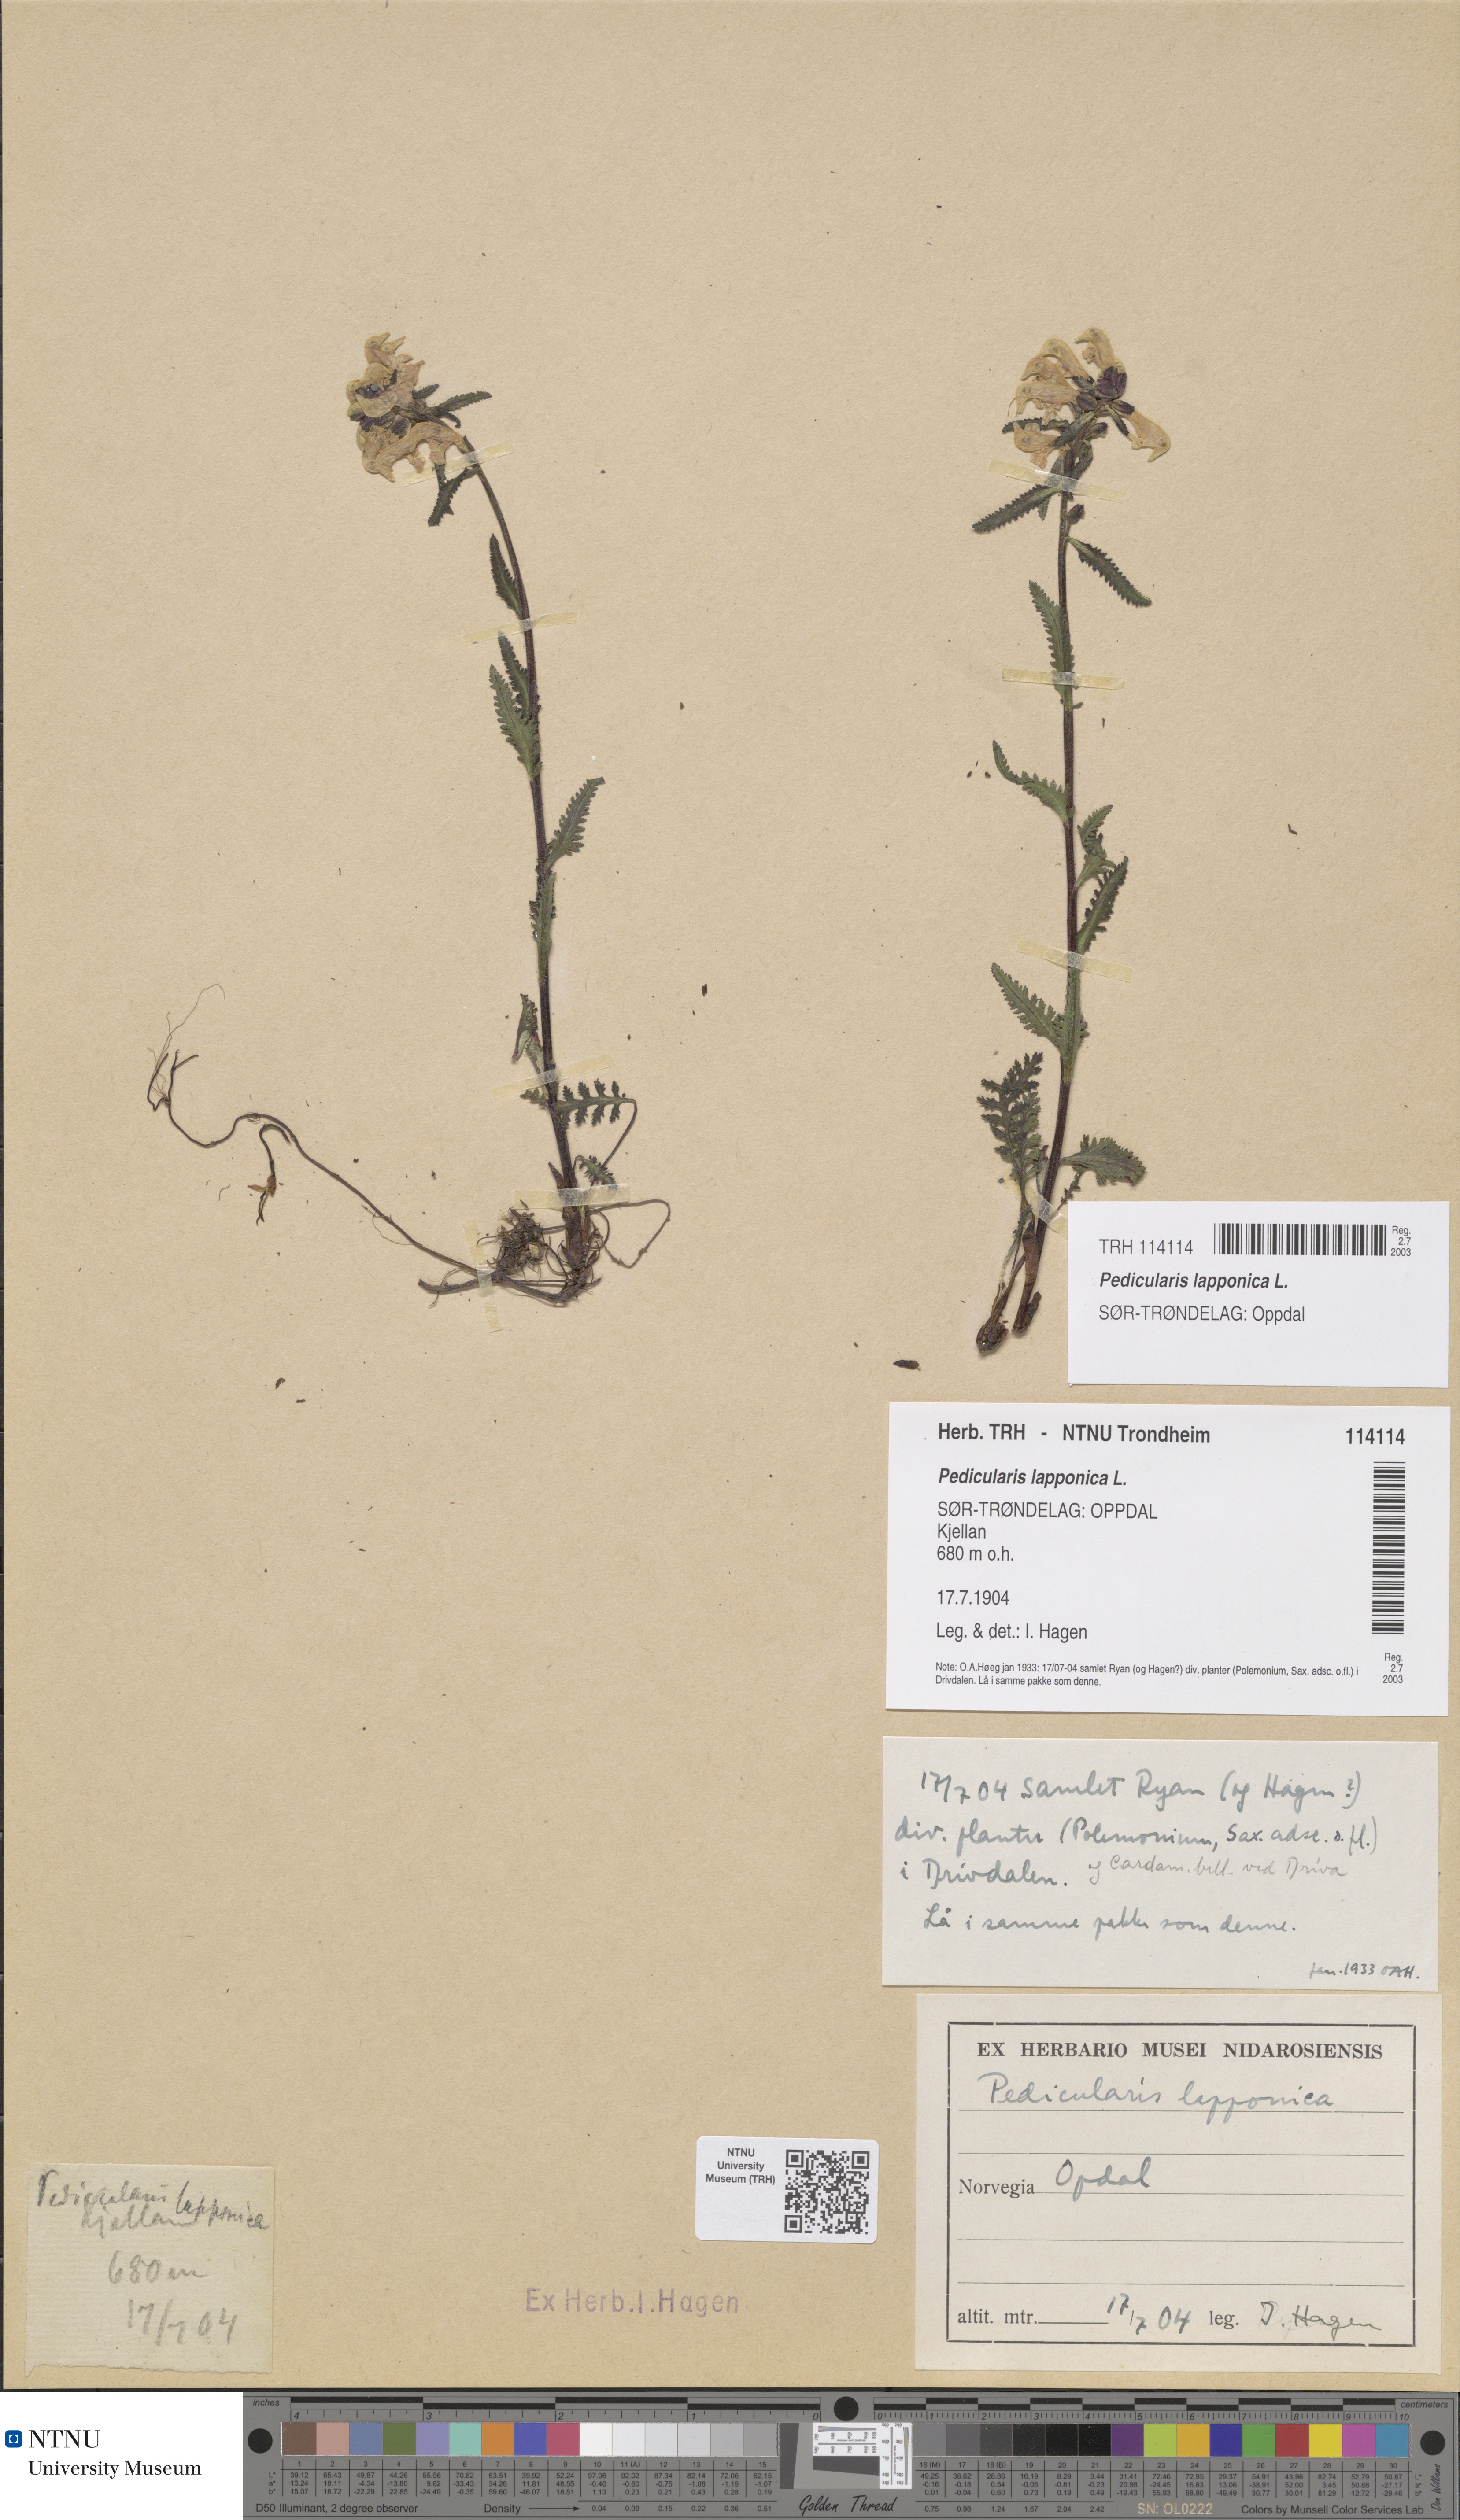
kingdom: Plantae
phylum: Tracheophyta
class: Magnoliopsida
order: Lamiales
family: Orobanchaceae
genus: Pedicularis
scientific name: Pedicularis lapponica
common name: Lapland lousewort
